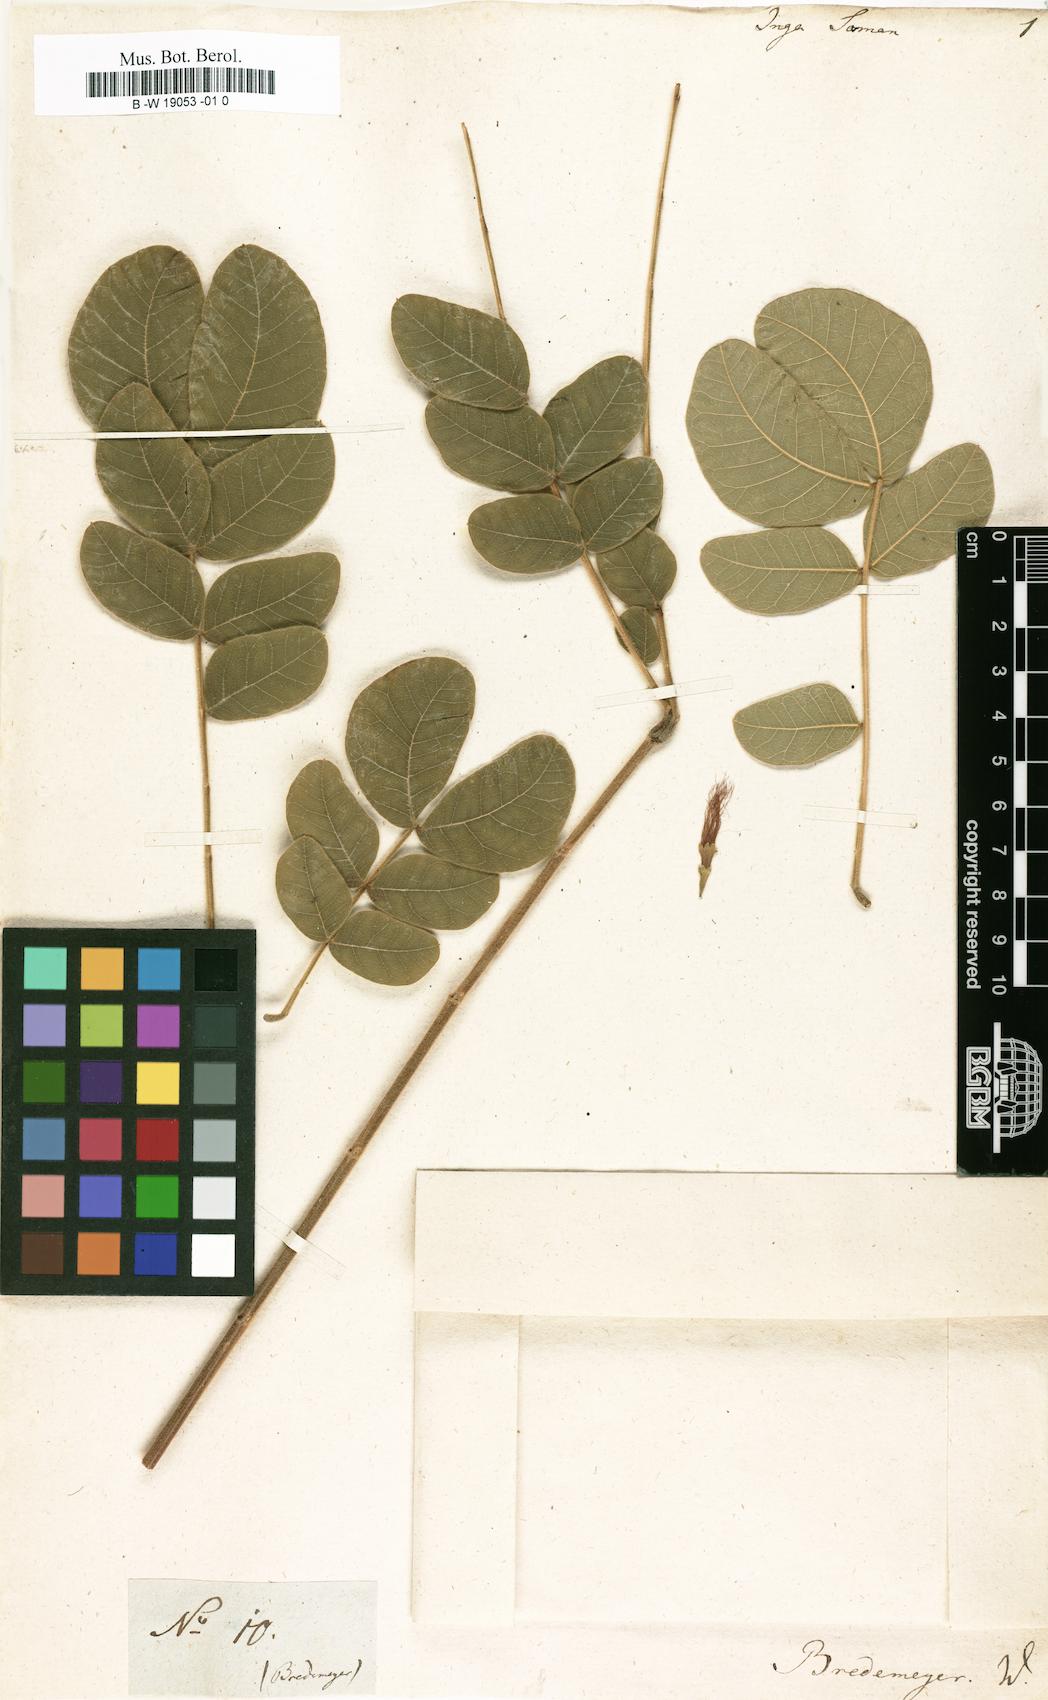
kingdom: Plantae
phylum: Tracheophyta
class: Magnoliopsida
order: Fabales
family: Fabaceae
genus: Samanea
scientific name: Samanea saman
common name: Raintree
